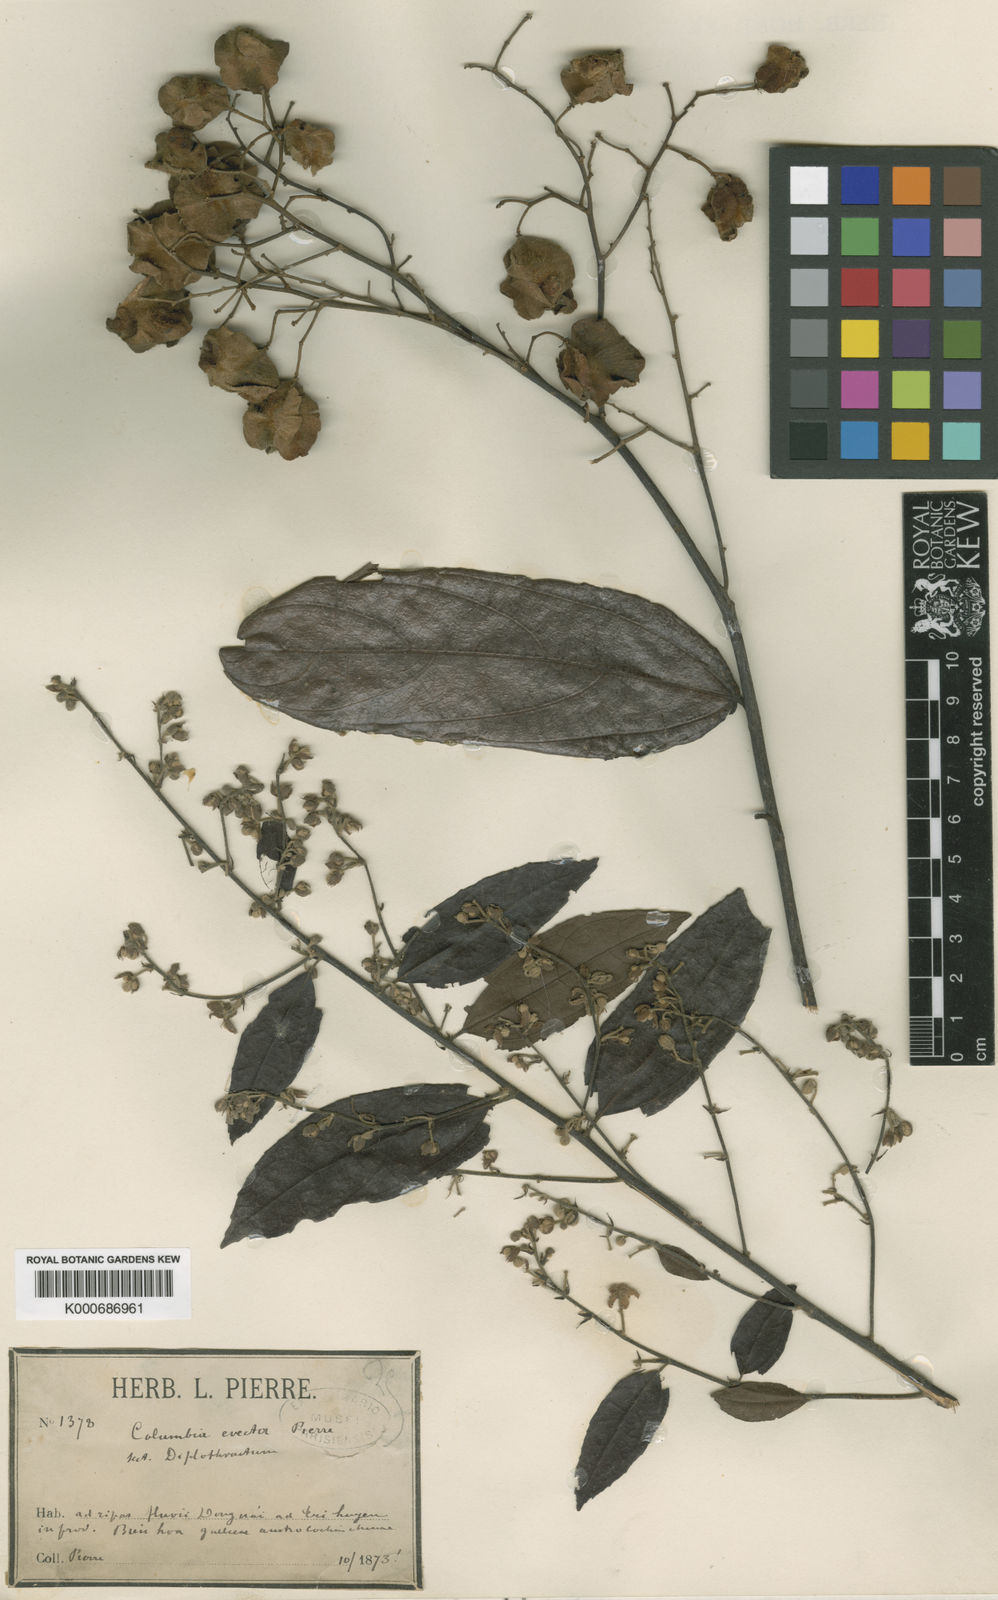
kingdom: Plantae
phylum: Tracheophyta
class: Magnoliopsida
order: Malvales
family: Malvaceae
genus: Colona
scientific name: Colona
